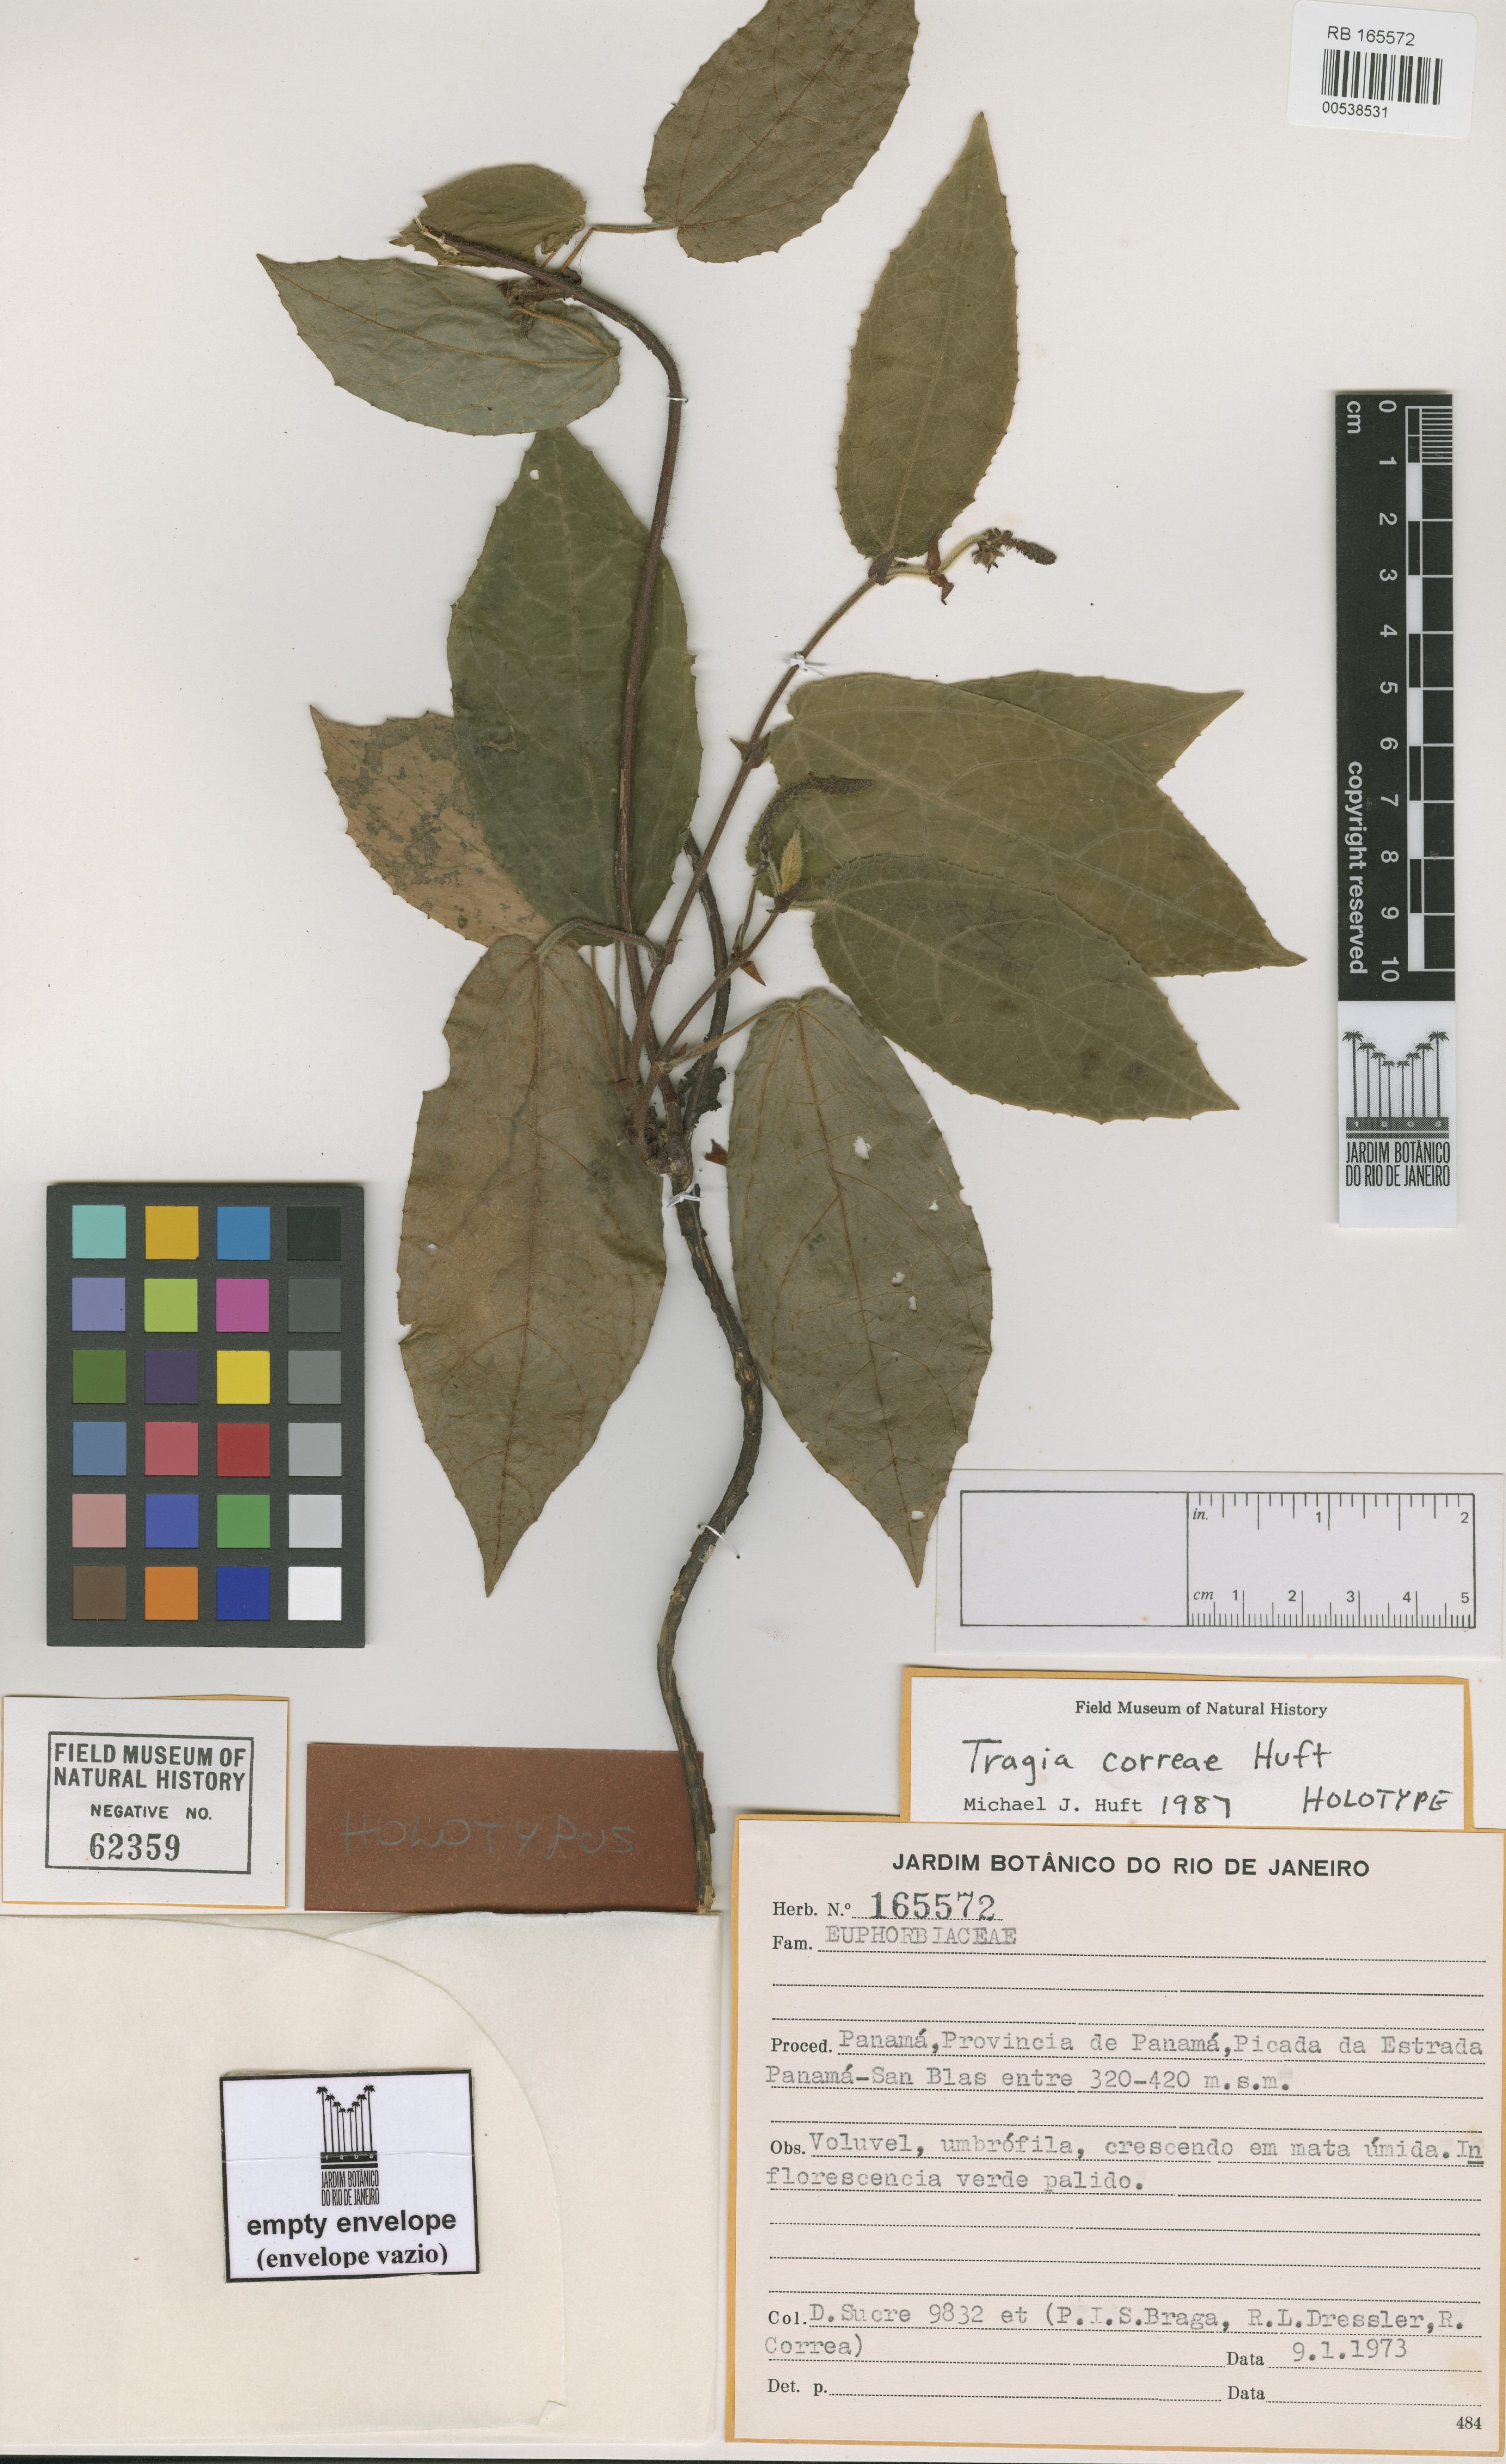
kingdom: Plantae
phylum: Tracheophyta
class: Magnoliopsida
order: Malpighiales
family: Euphorbiaceae
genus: Tragia
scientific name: Tragia correae
